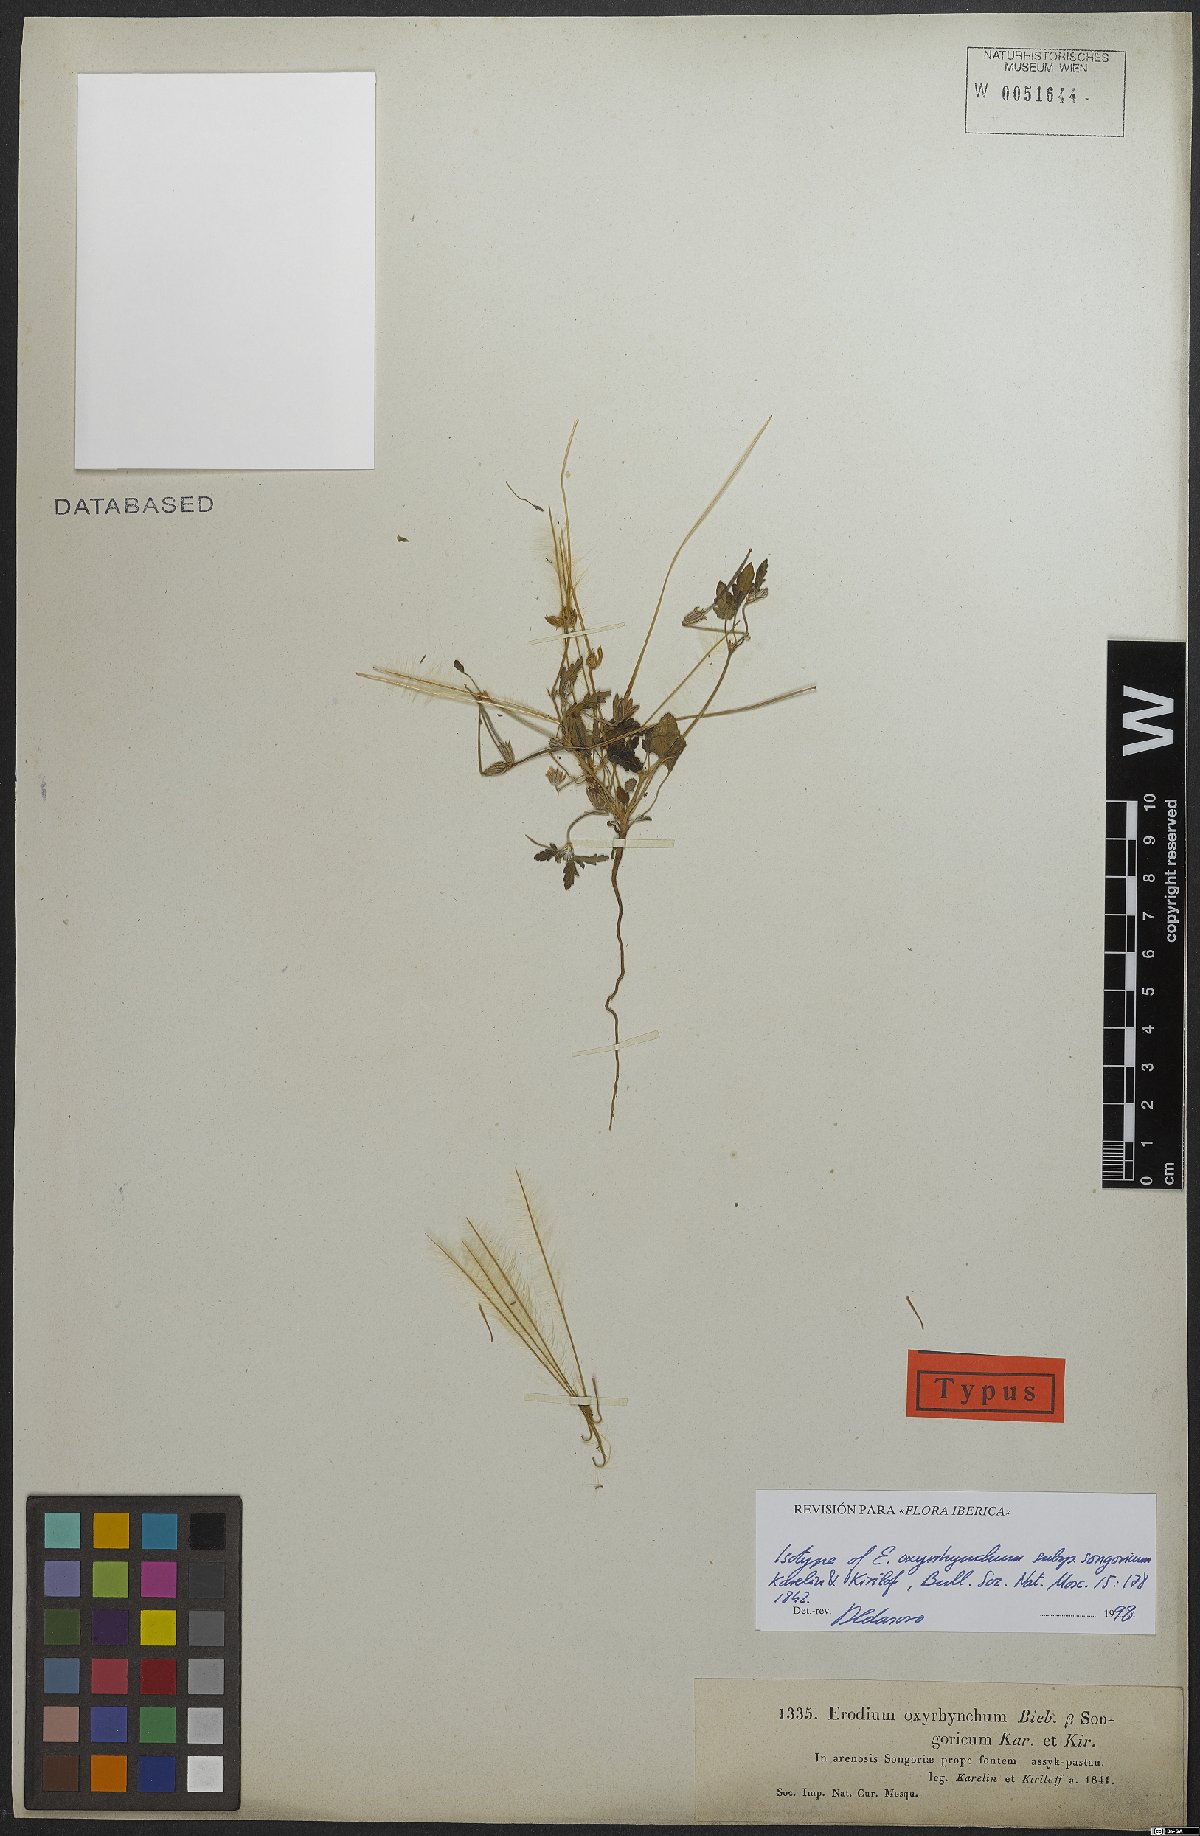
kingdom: Plantae
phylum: Tracheophyta
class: Magnoliopsida
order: Geraniales
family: Geraniaceae
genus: Erodium
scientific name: Erodium oxyrrhynchum
